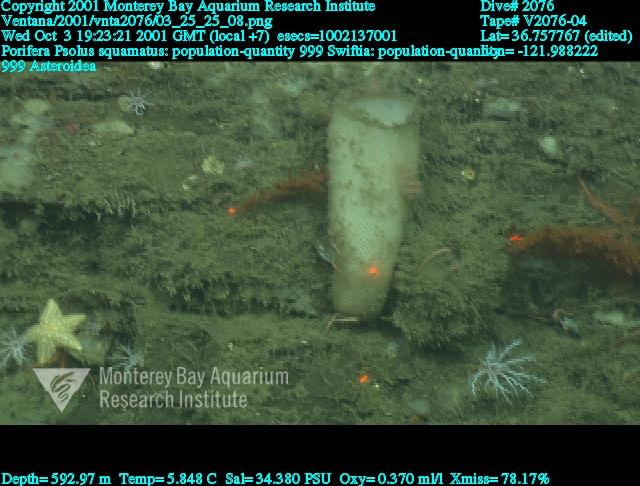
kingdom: Animalia
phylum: Porifera
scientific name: Porifera
